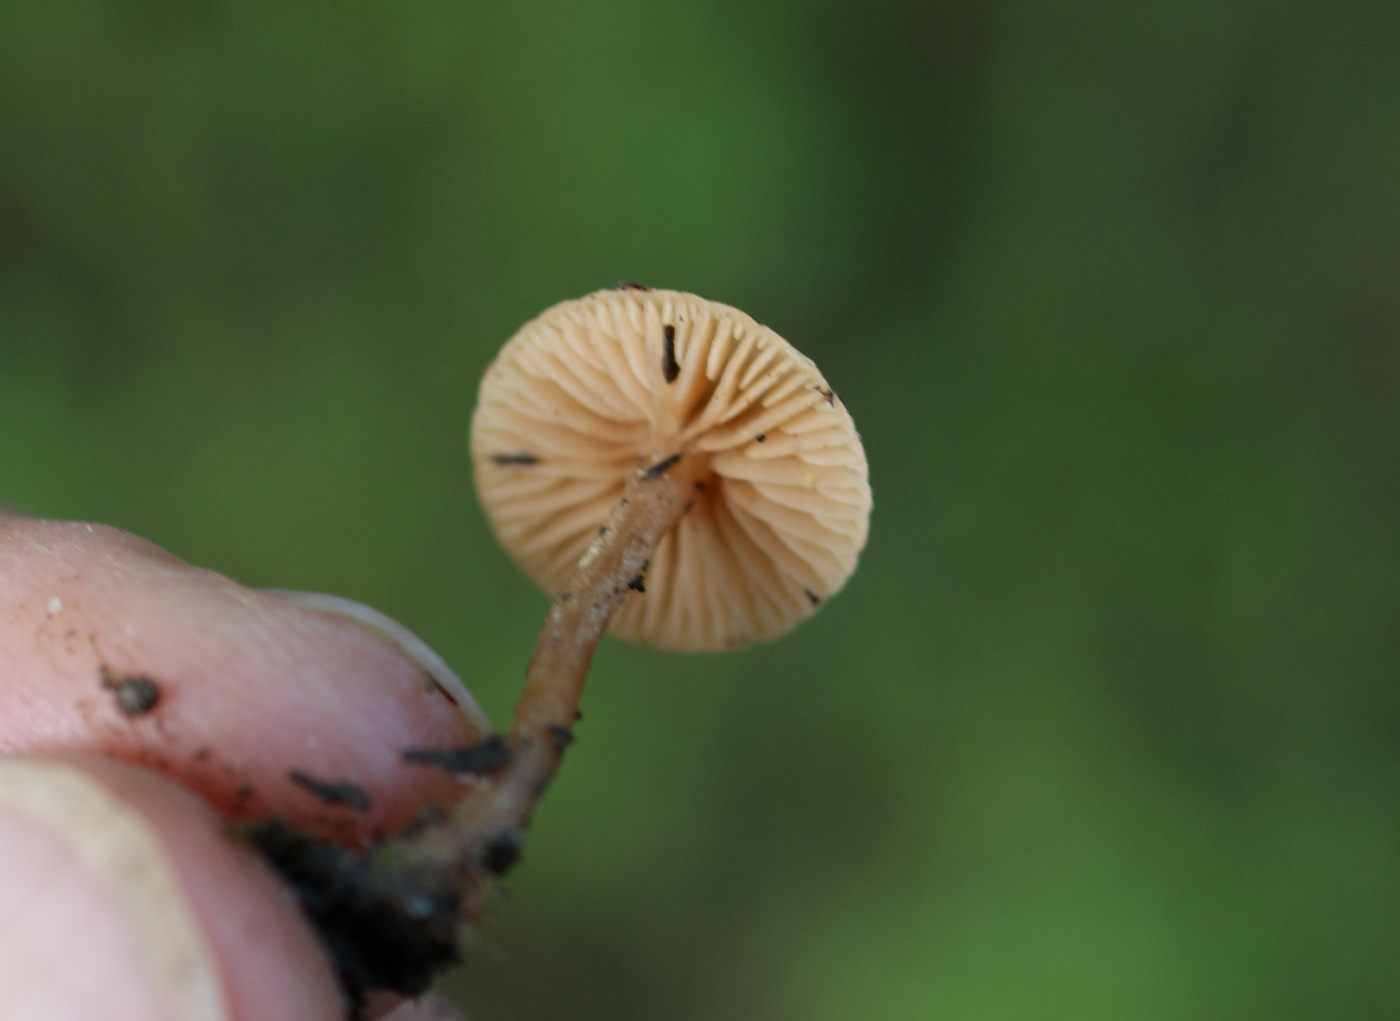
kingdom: Fungi
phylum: Basidiomycota
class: Agaricomycetes
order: Agaricales
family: Tubariaceae
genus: Tubaria
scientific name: Tubaria conspersa
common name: bleg fnughat
